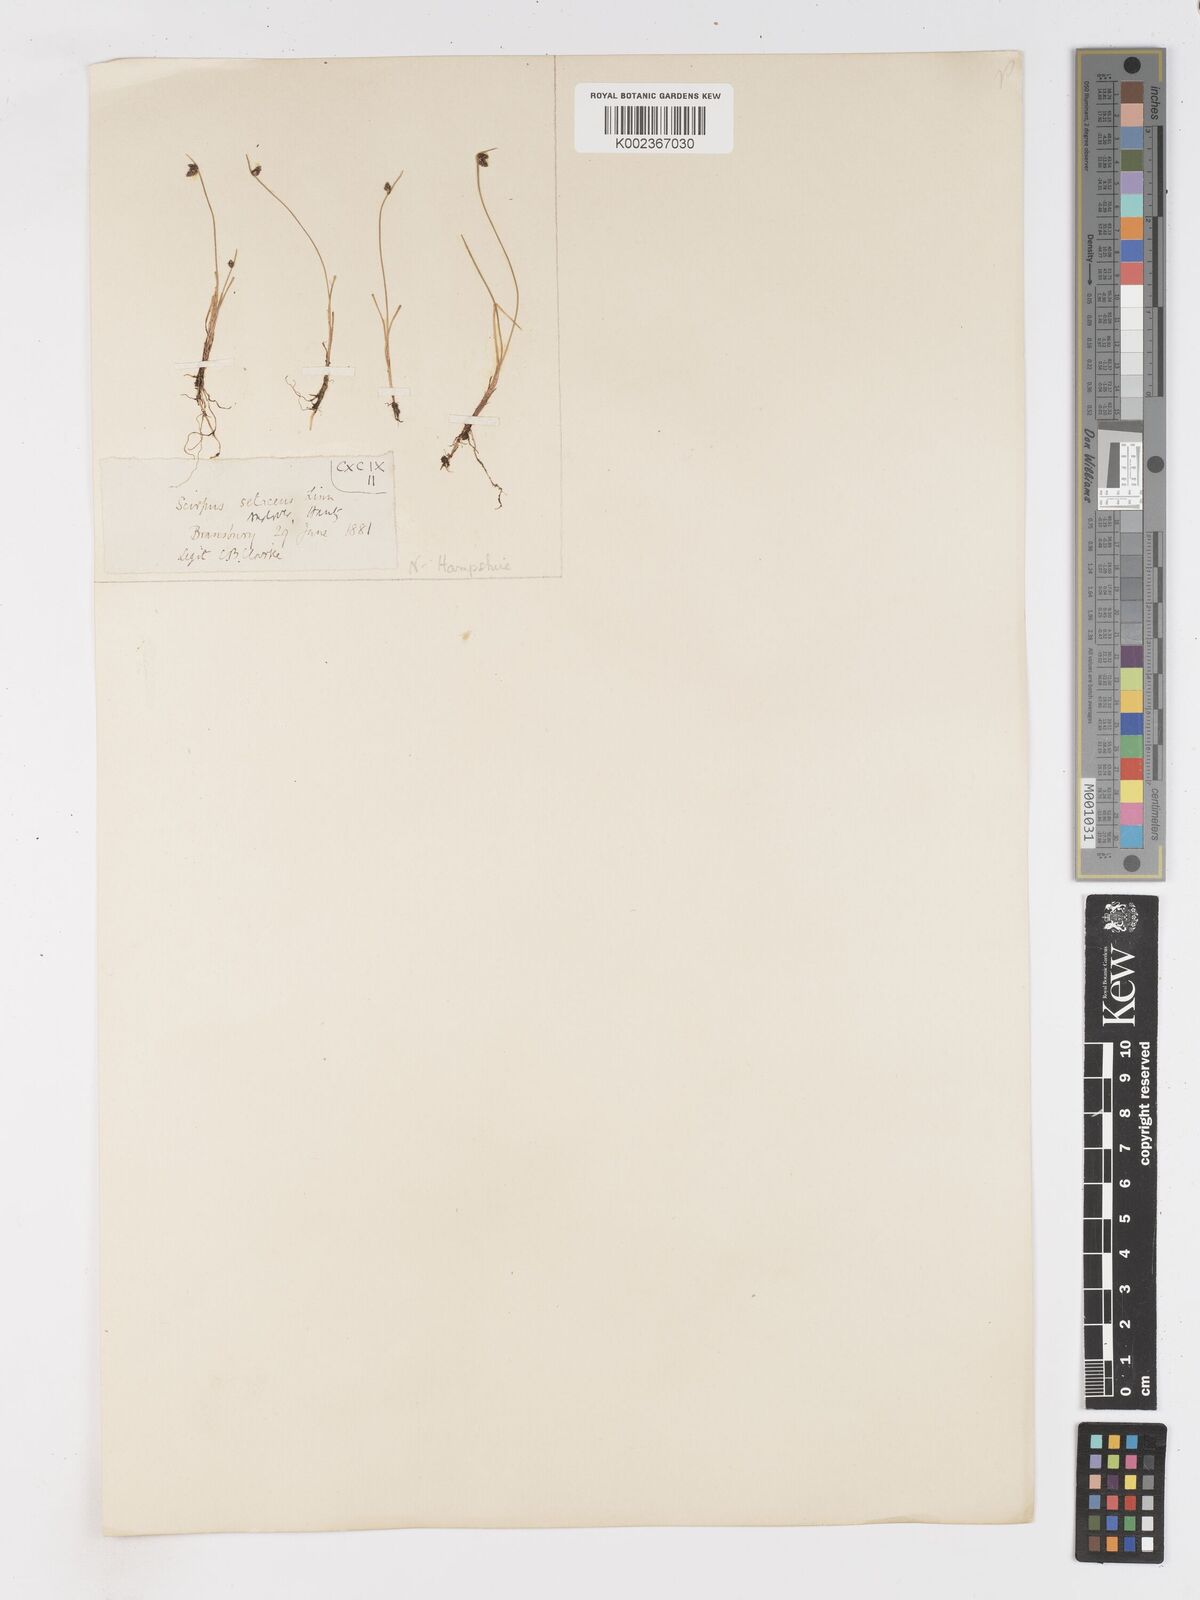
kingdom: Plantae
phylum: Tracheophyta
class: Liliopsida
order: Poales
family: Cyperaceae
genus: Isolepis
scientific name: Isolepis setacea
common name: Bristle club-rush
